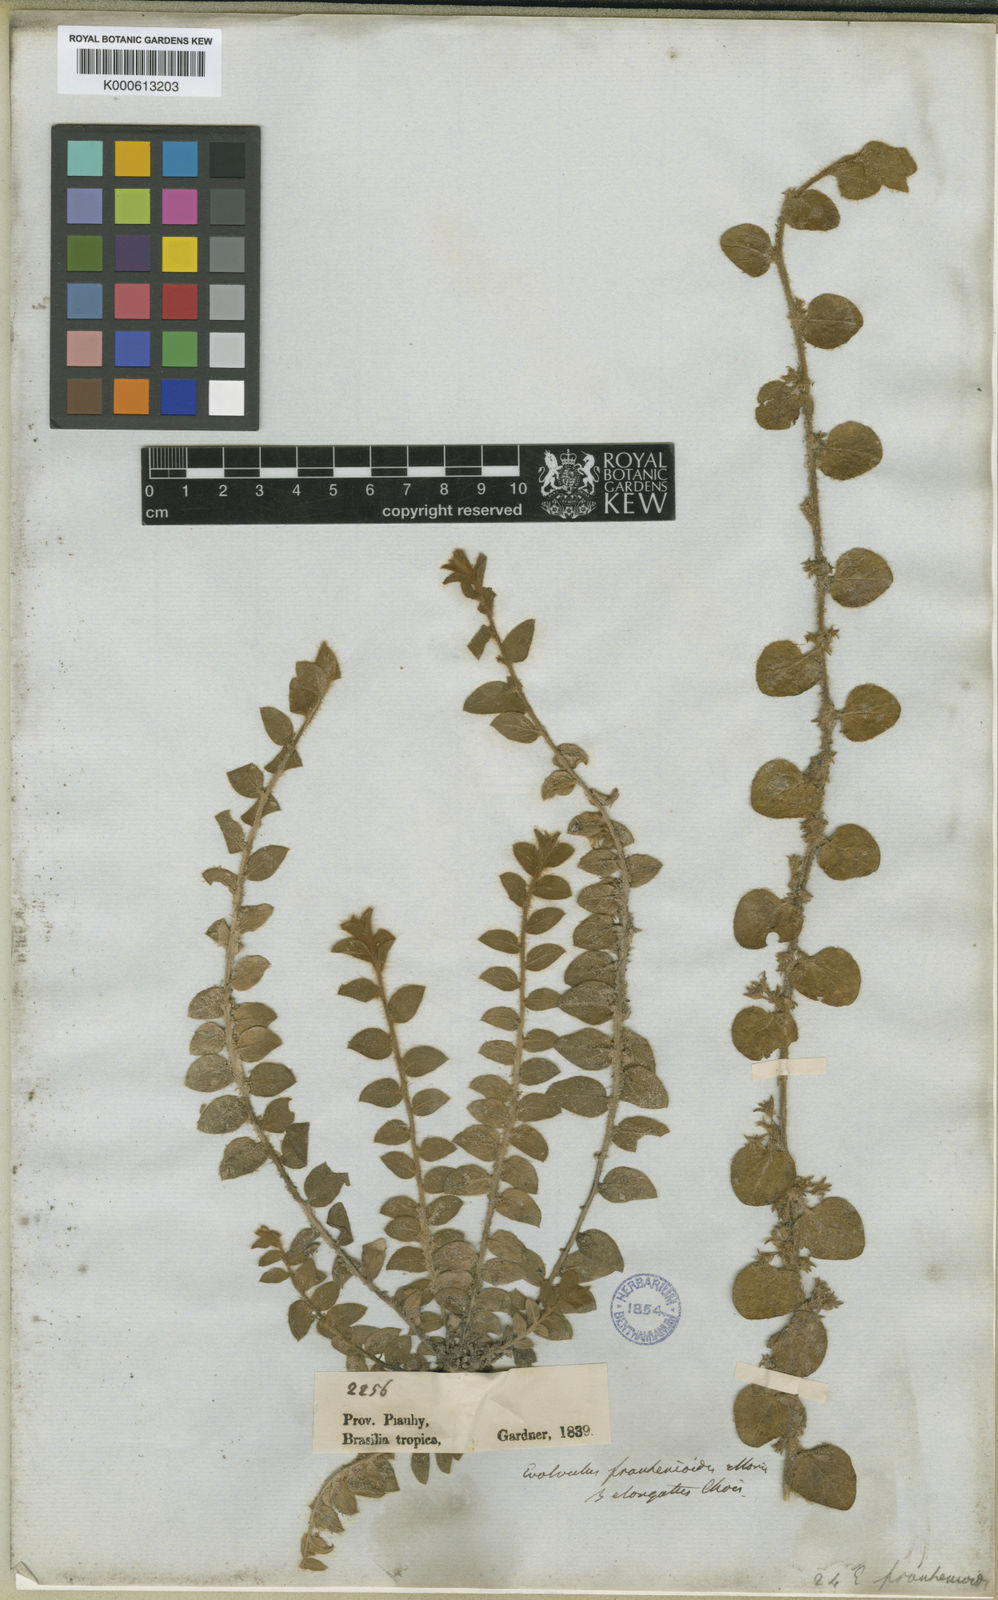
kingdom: Plantae
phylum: Tracheophyta
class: Magnoliopsida
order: Solanales
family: Convolvulaceae
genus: Evolvulus
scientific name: Evolvulus frankenioides
